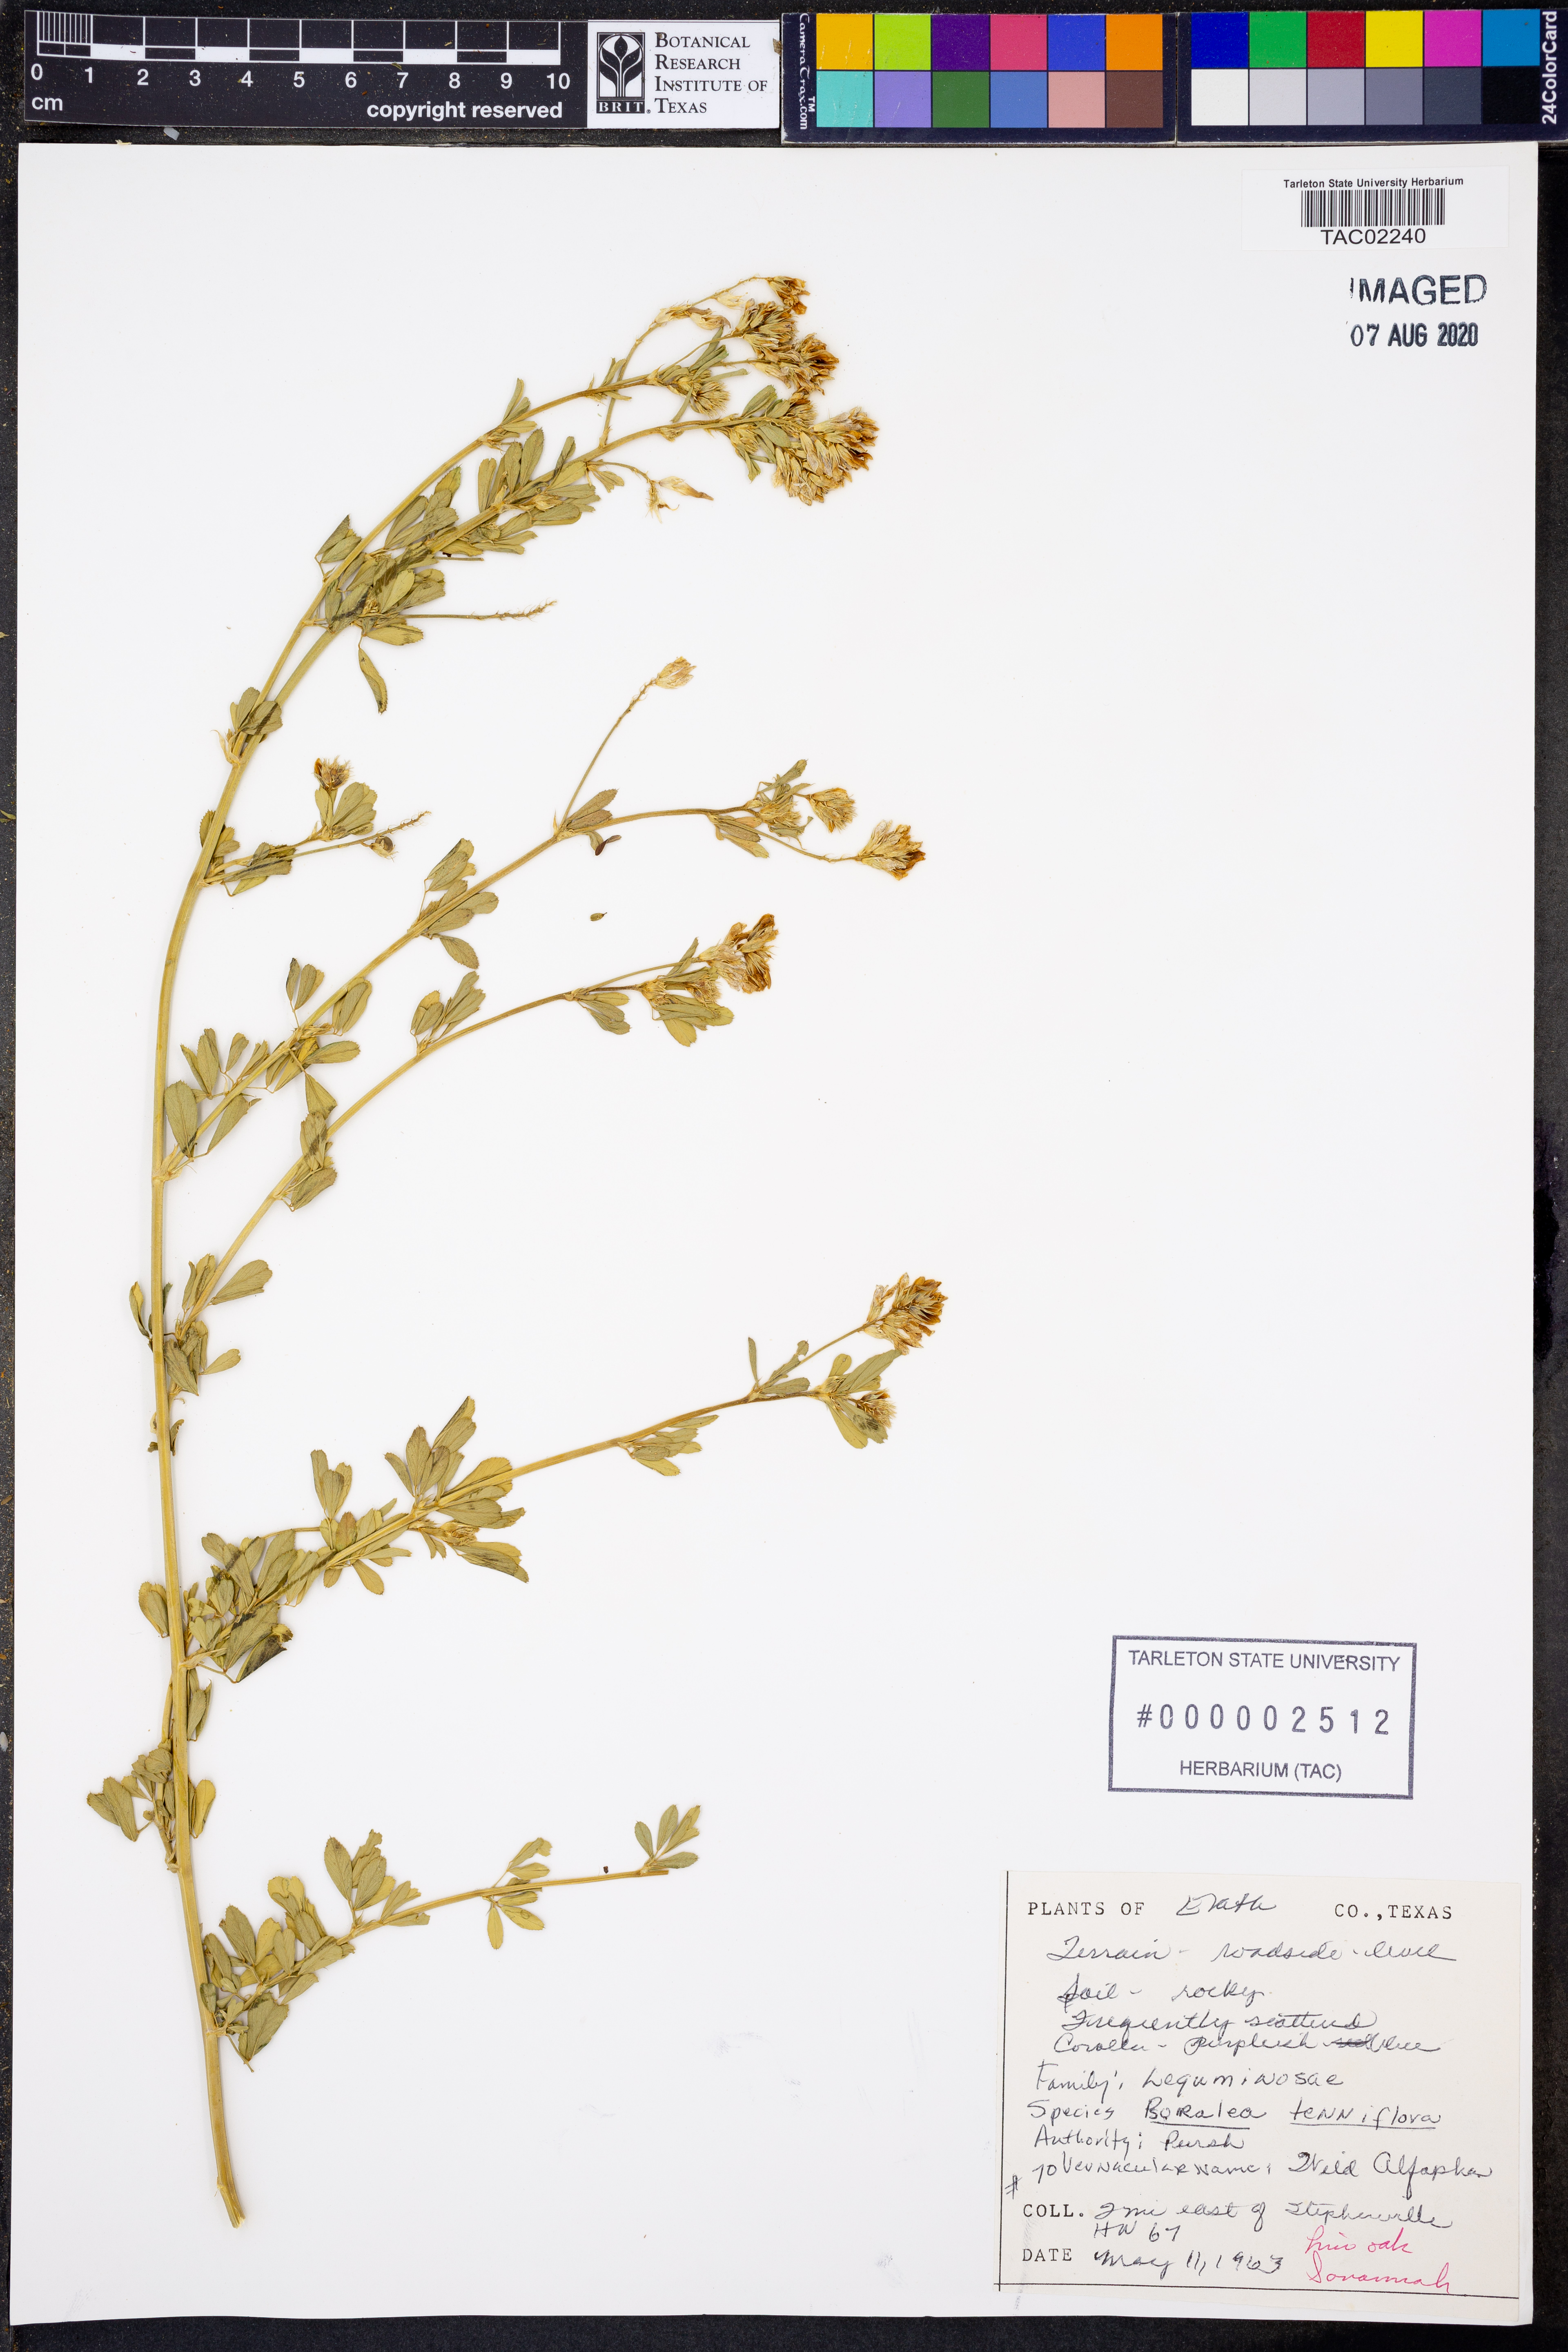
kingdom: Plantae
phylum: Tracheophyta
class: Magnoliopsida
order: Fabales
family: Fabaceae
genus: Pediomelum
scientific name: Pediomelum tenuiflorum
